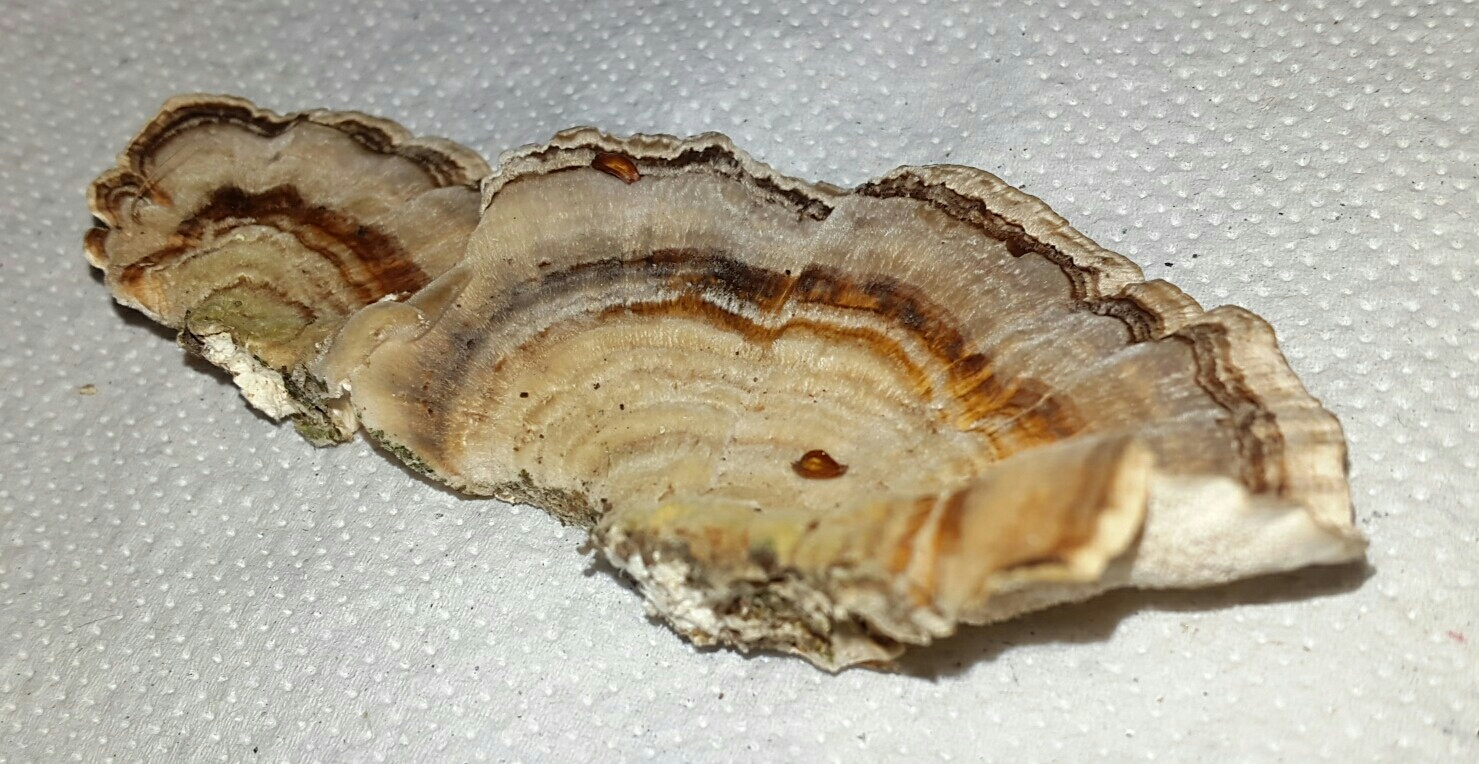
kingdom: Fungi
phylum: Basidiomycota
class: Agaricomycetes
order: Polyporales
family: Polyporaceae
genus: Trametes
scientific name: Trametes versicolor
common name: broget læderporesvamp
